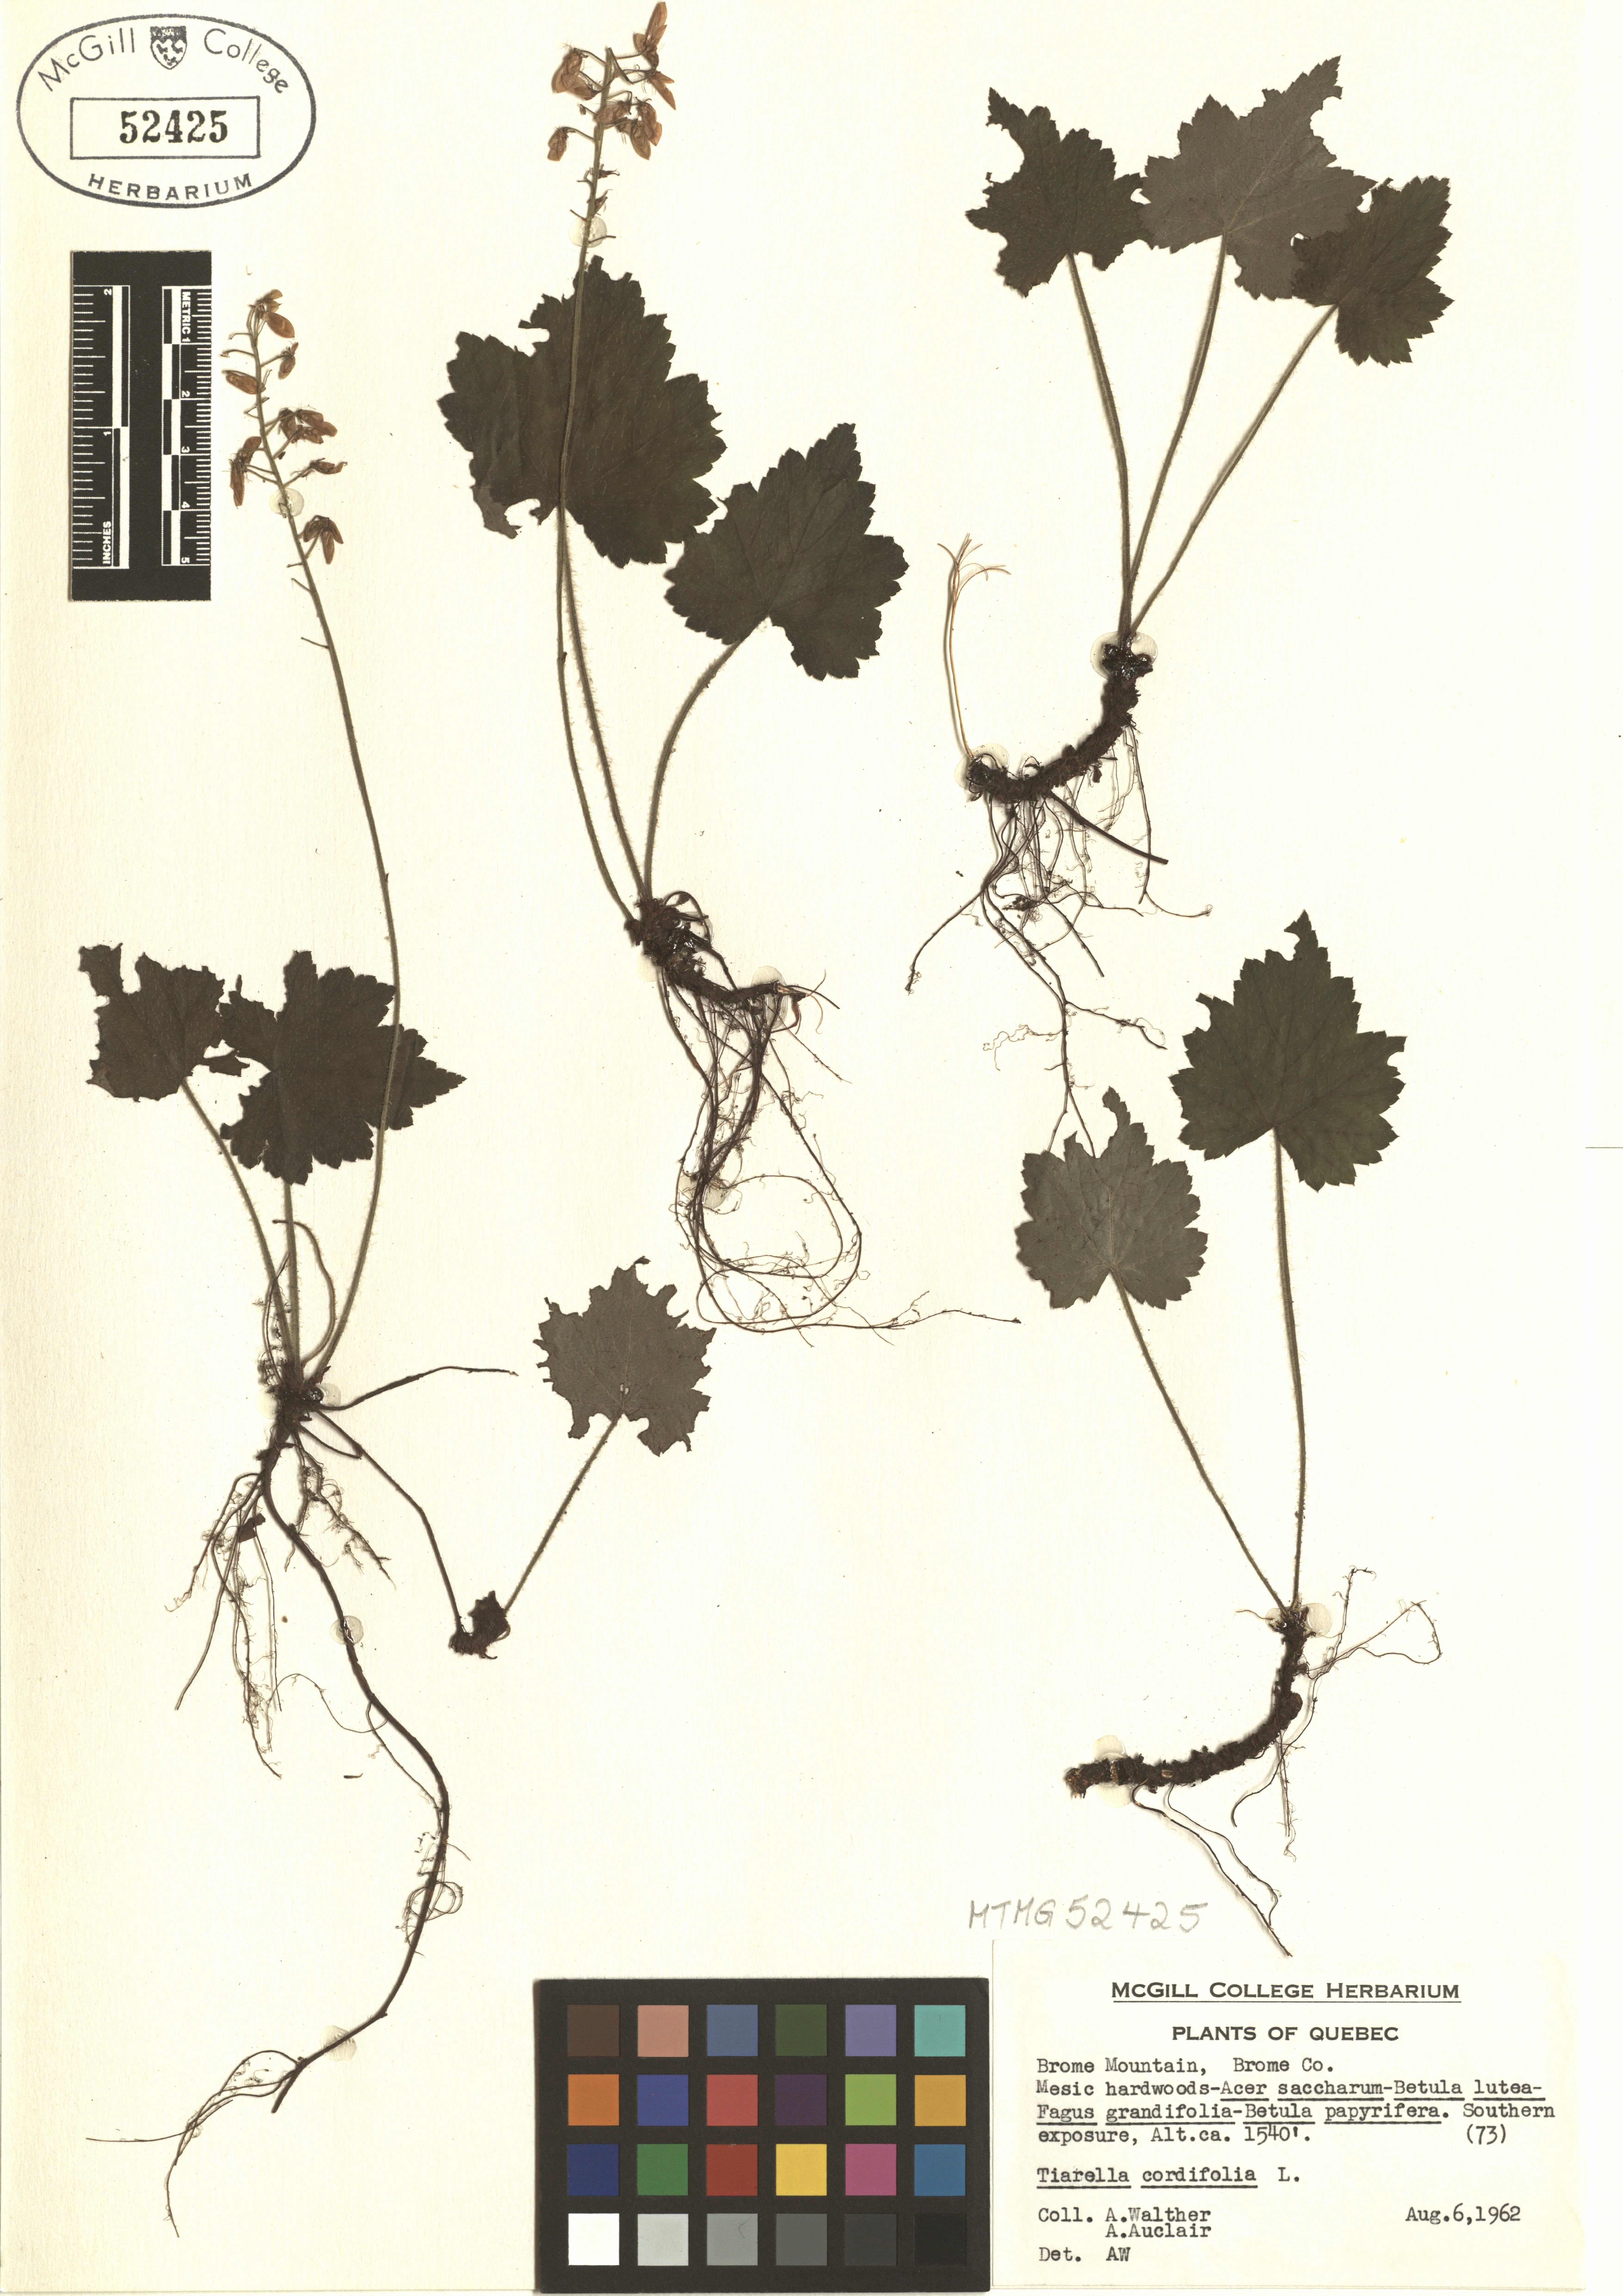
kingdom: Plantae
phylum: Tracheophyta
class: Magnoliopsida
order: Saxifragales
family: Saxifragaceae
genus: Tiarella
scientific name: Tiarella cordifolia
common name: Foamflower
